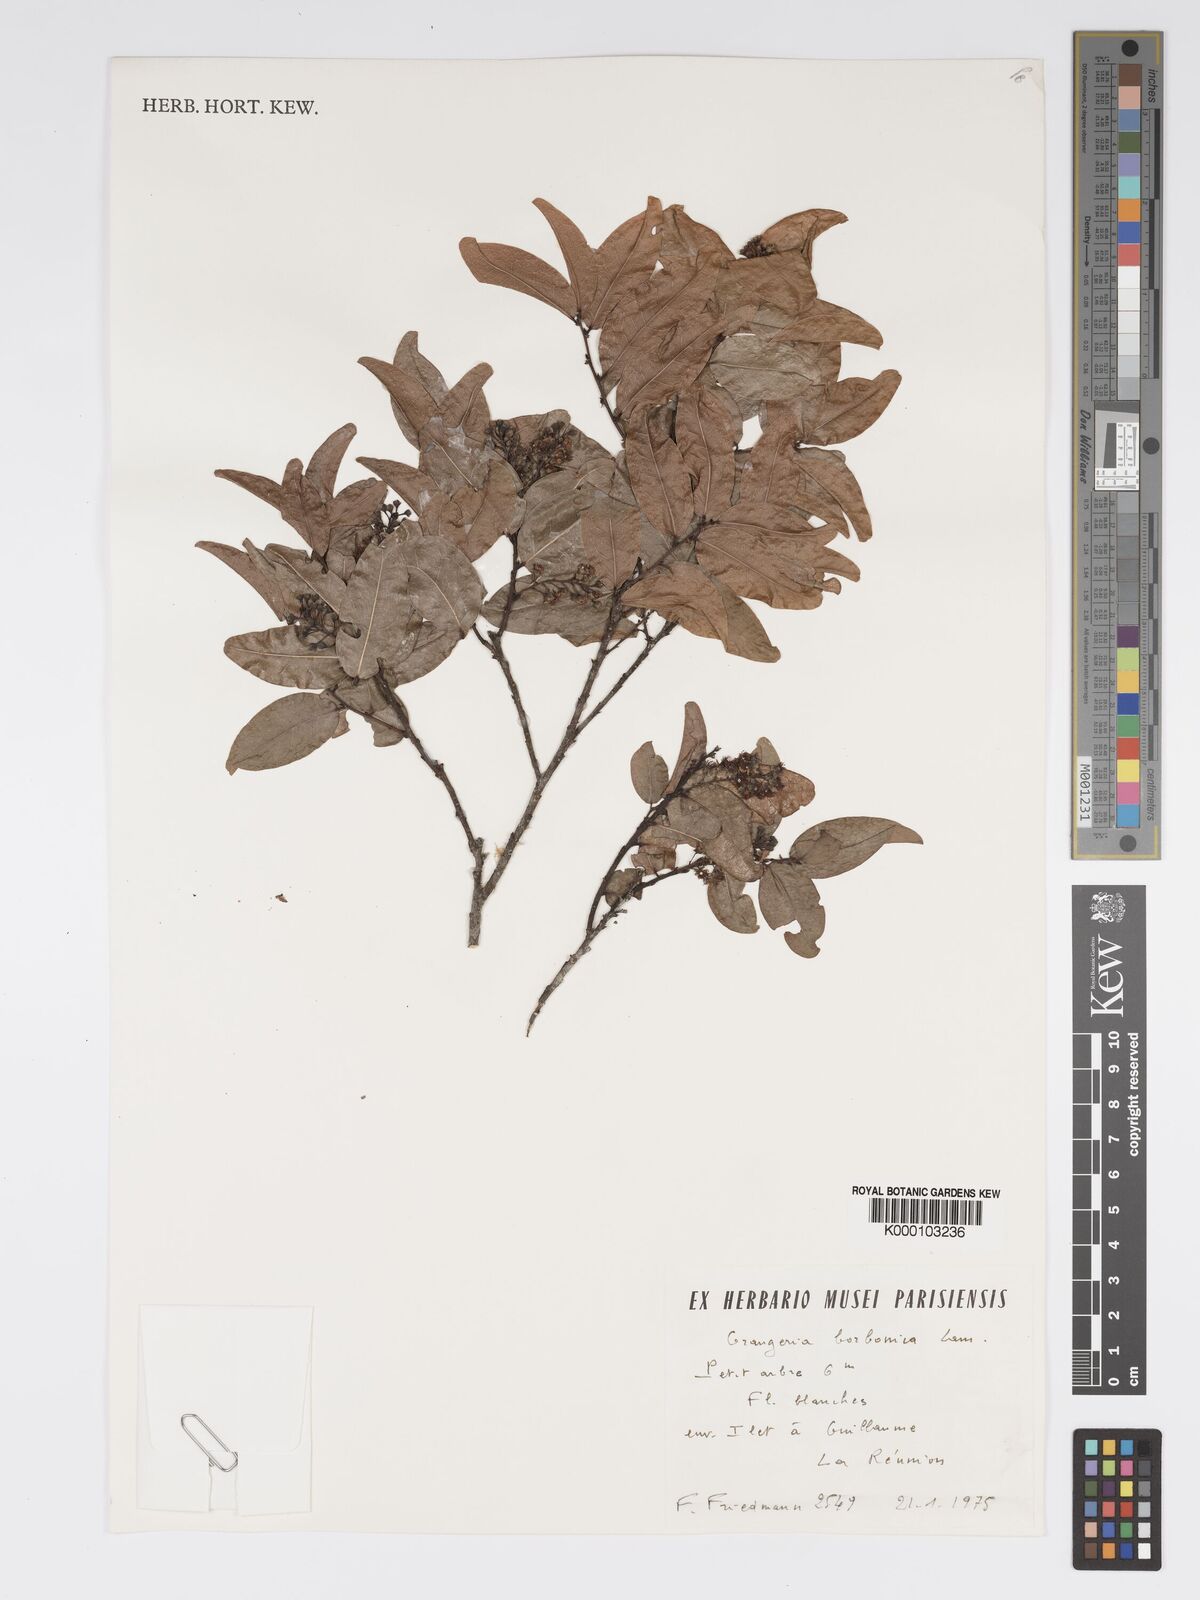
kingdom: Plantae
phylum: Tracheophyta
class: Magnoliopsida
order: Malpighiales
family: Chrysobalanaceae
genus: Grangeria
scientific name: Grangeria borbonica
